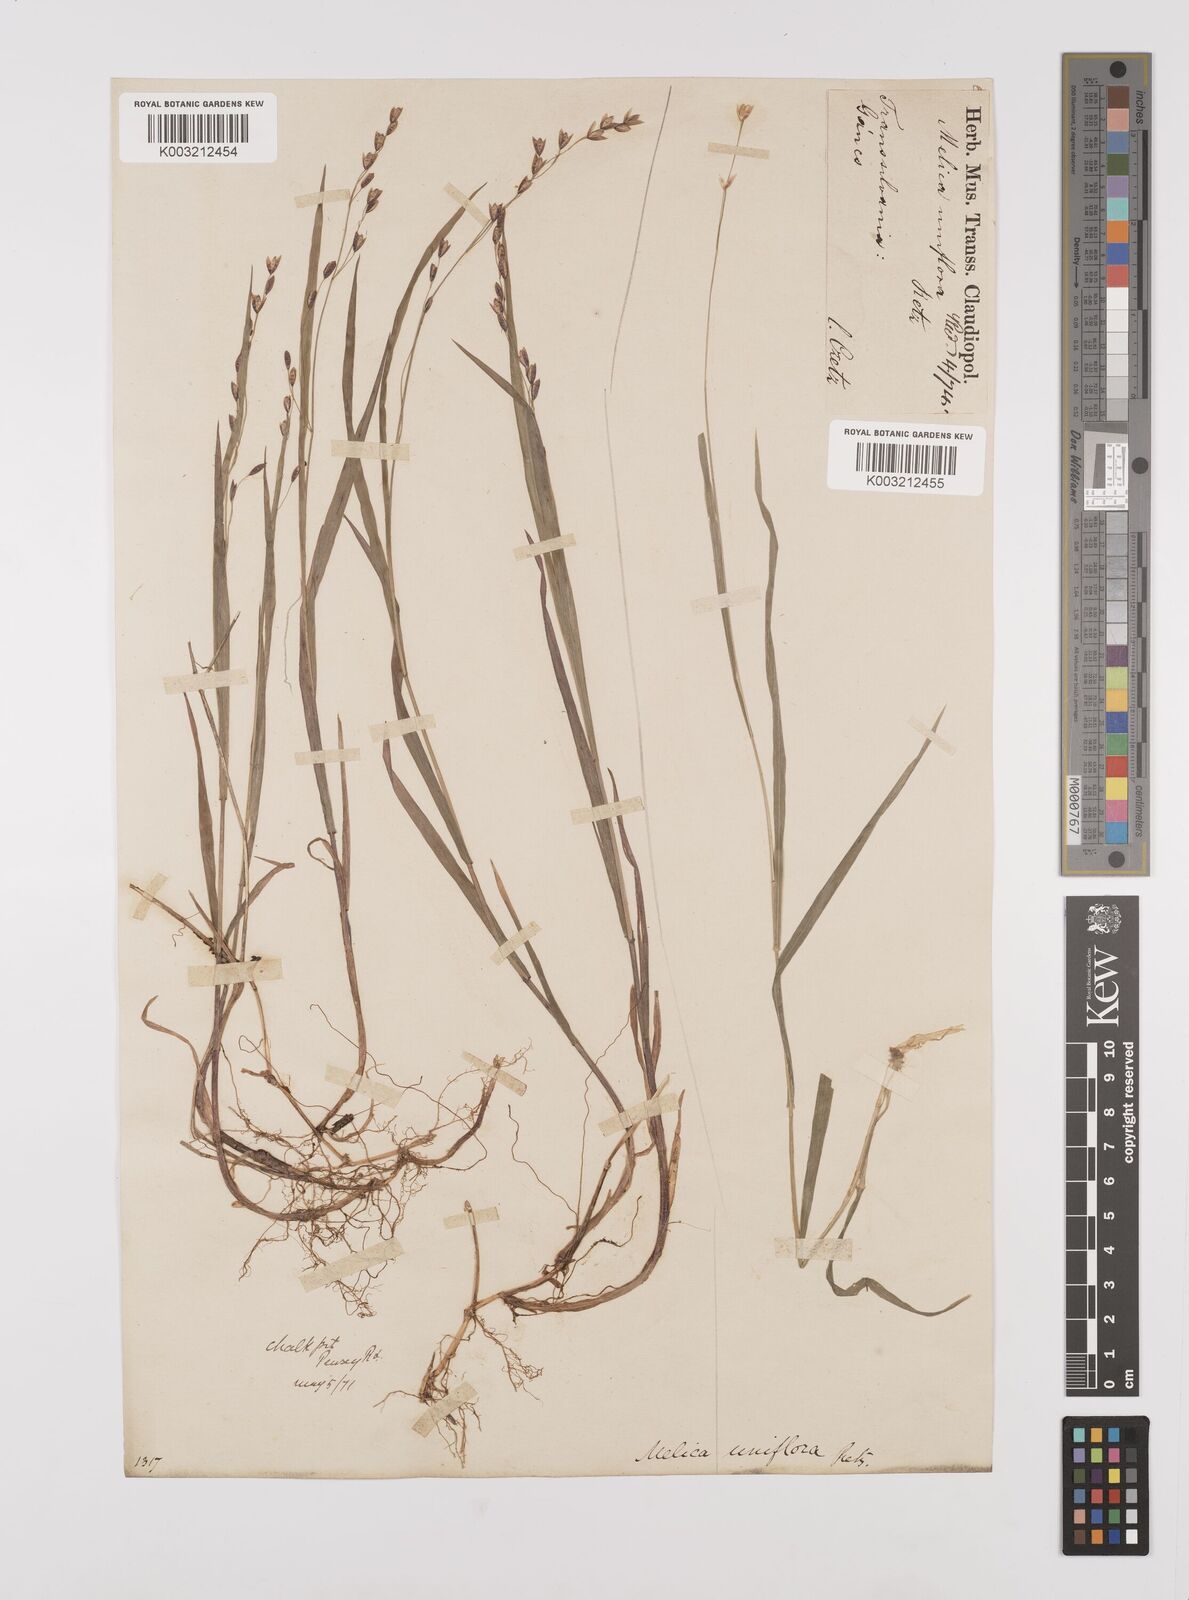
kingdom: Plantae
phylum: Tracheophyta
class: Liliopsida
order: Poales
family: Poaceae
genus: Melica
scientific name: Melica uniflora
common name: Wood melick
